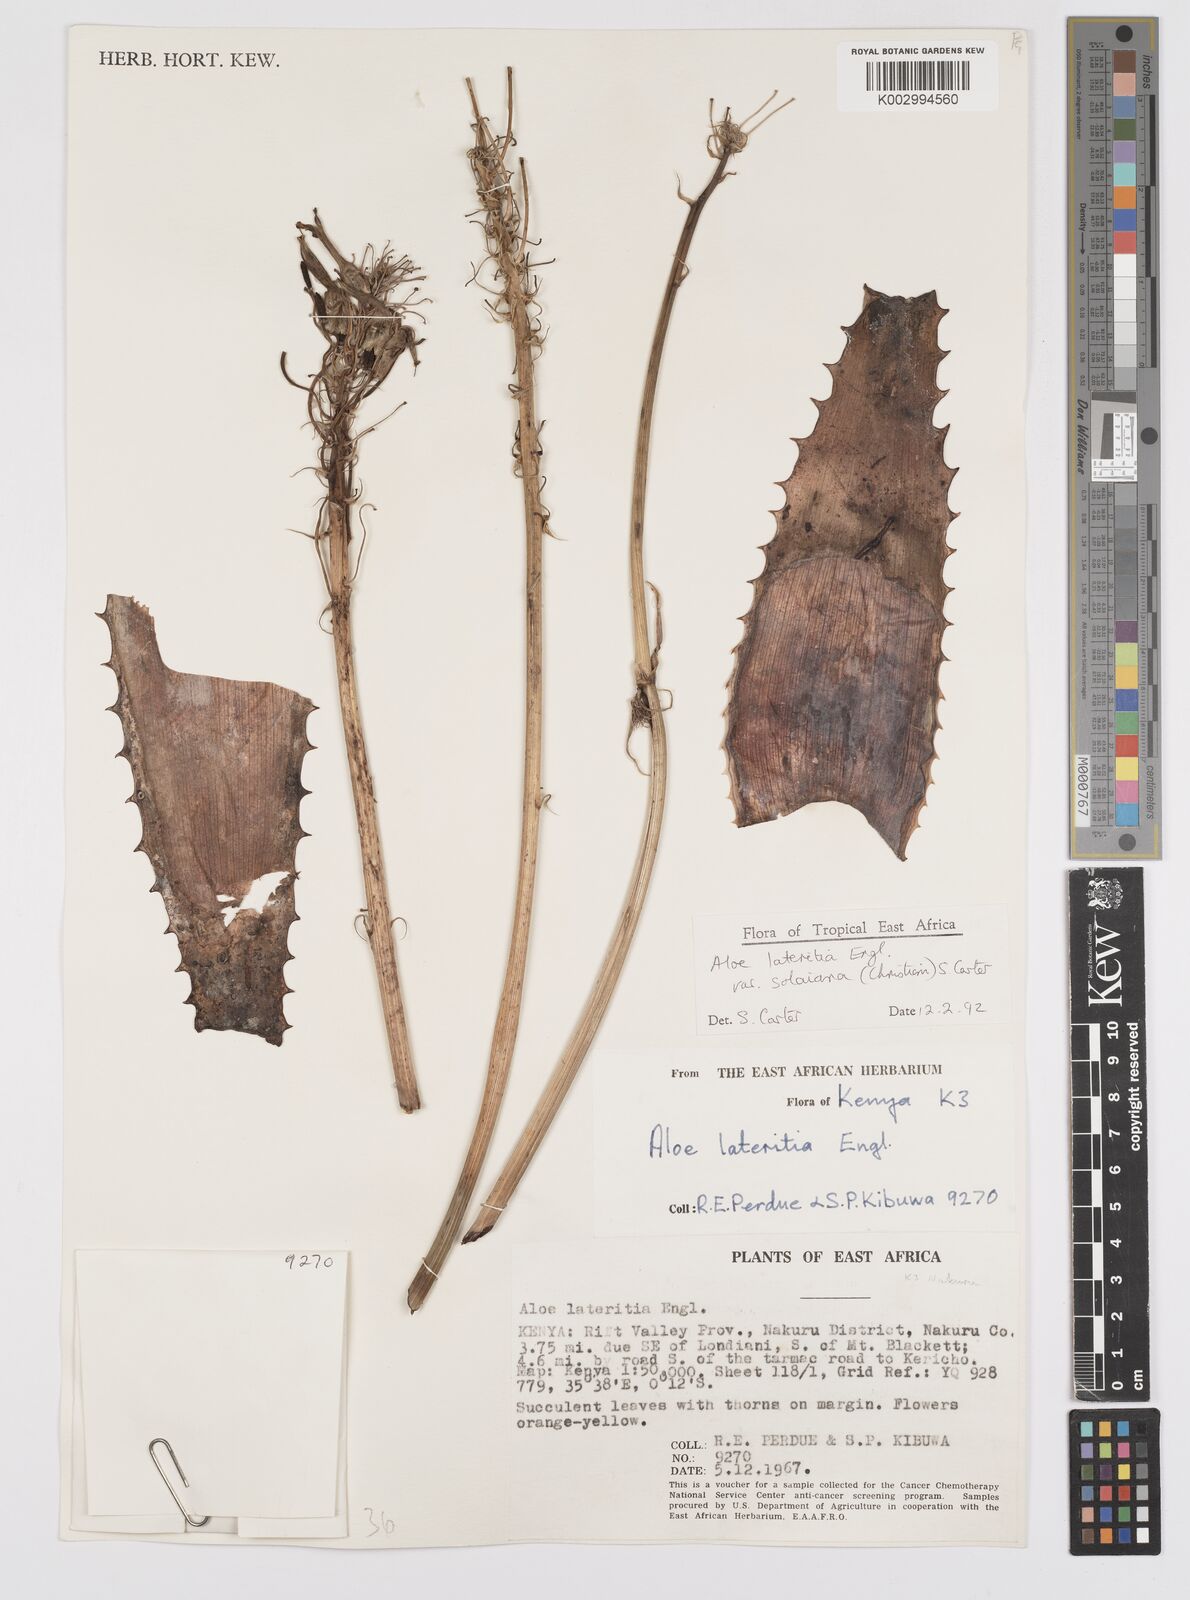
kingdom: Plantae
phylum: Tracheophyta
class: Liliopsida
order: Asparagales
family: Asphodelaceae
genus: Aloe
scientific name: Aloe lateritia
